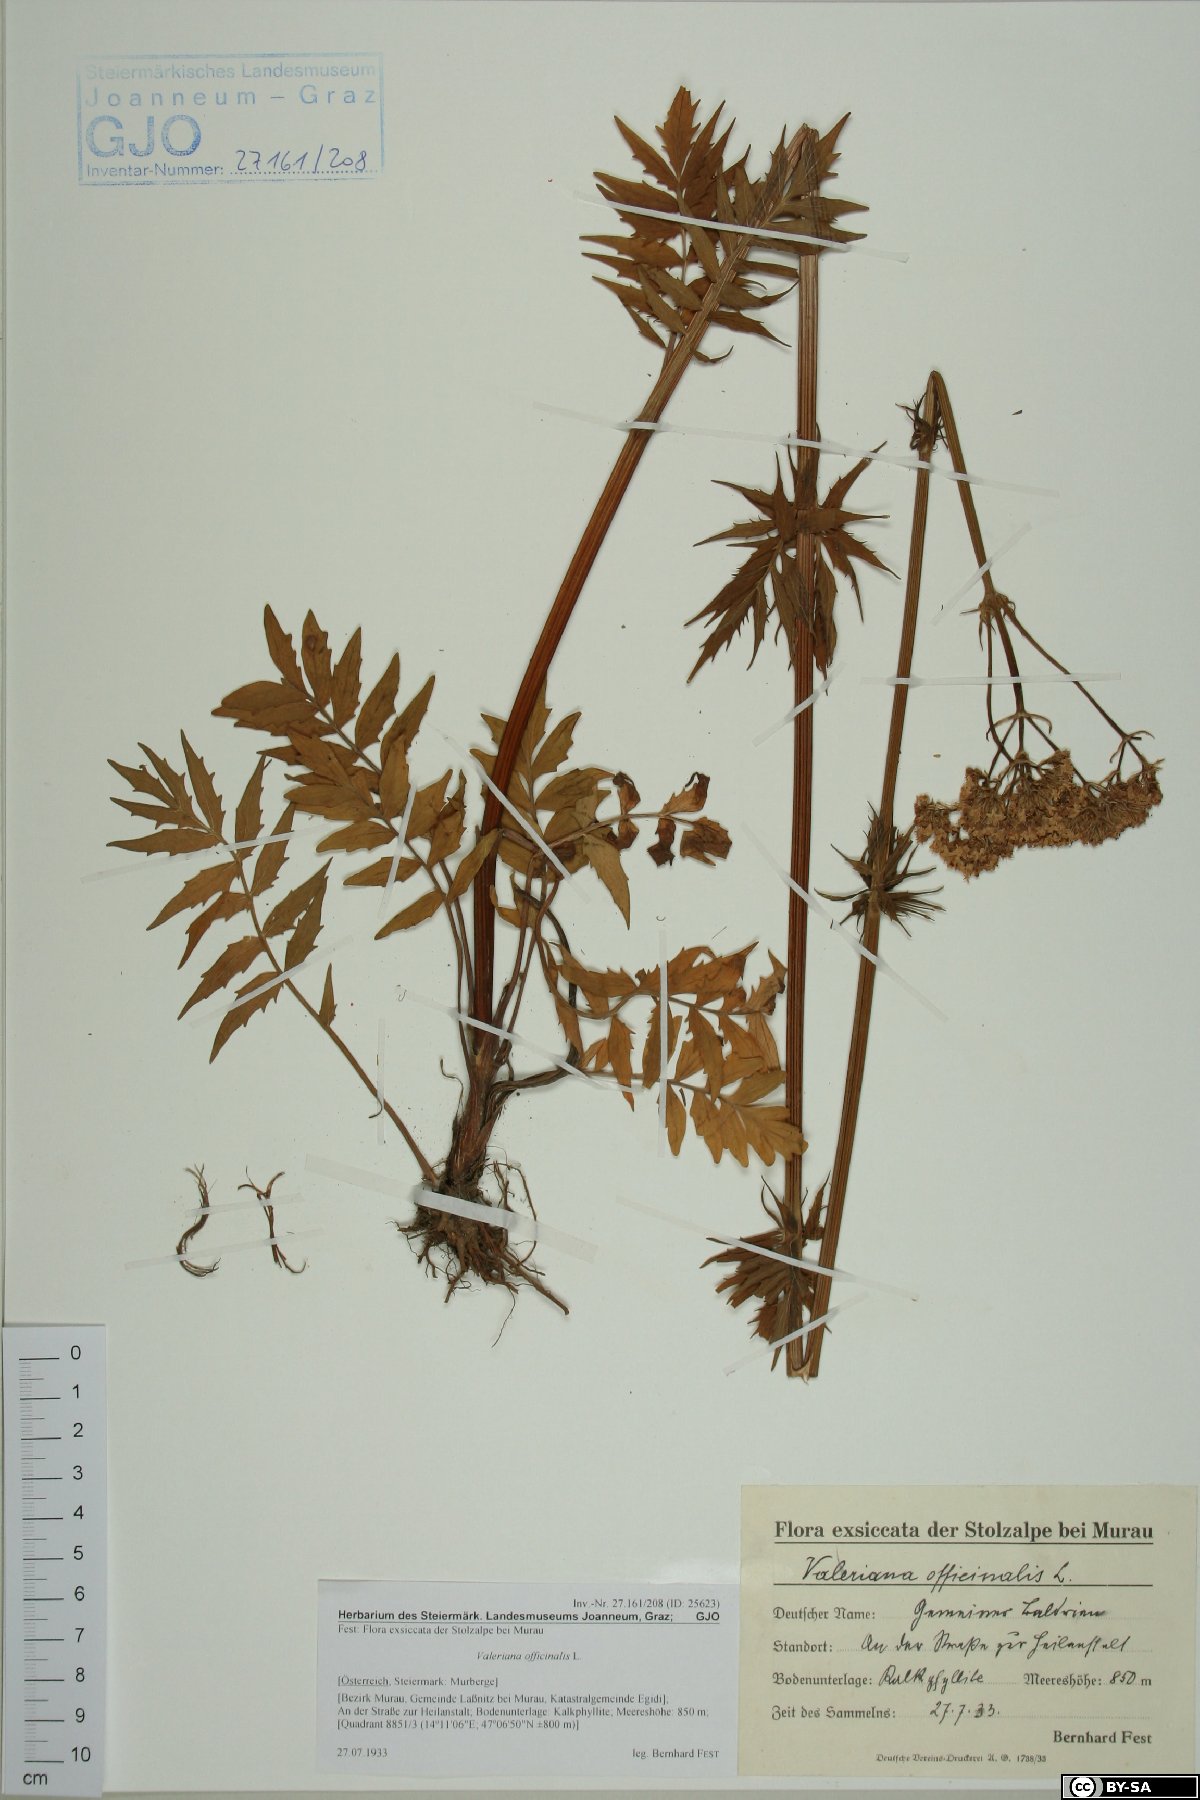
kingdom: Plantae
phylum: Tracheophyta
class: Magnoliopsida
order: Dipsacales
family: Caprifoliaceae
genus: Valeriana
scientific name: Valeriana officinalis
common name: Common valerian
